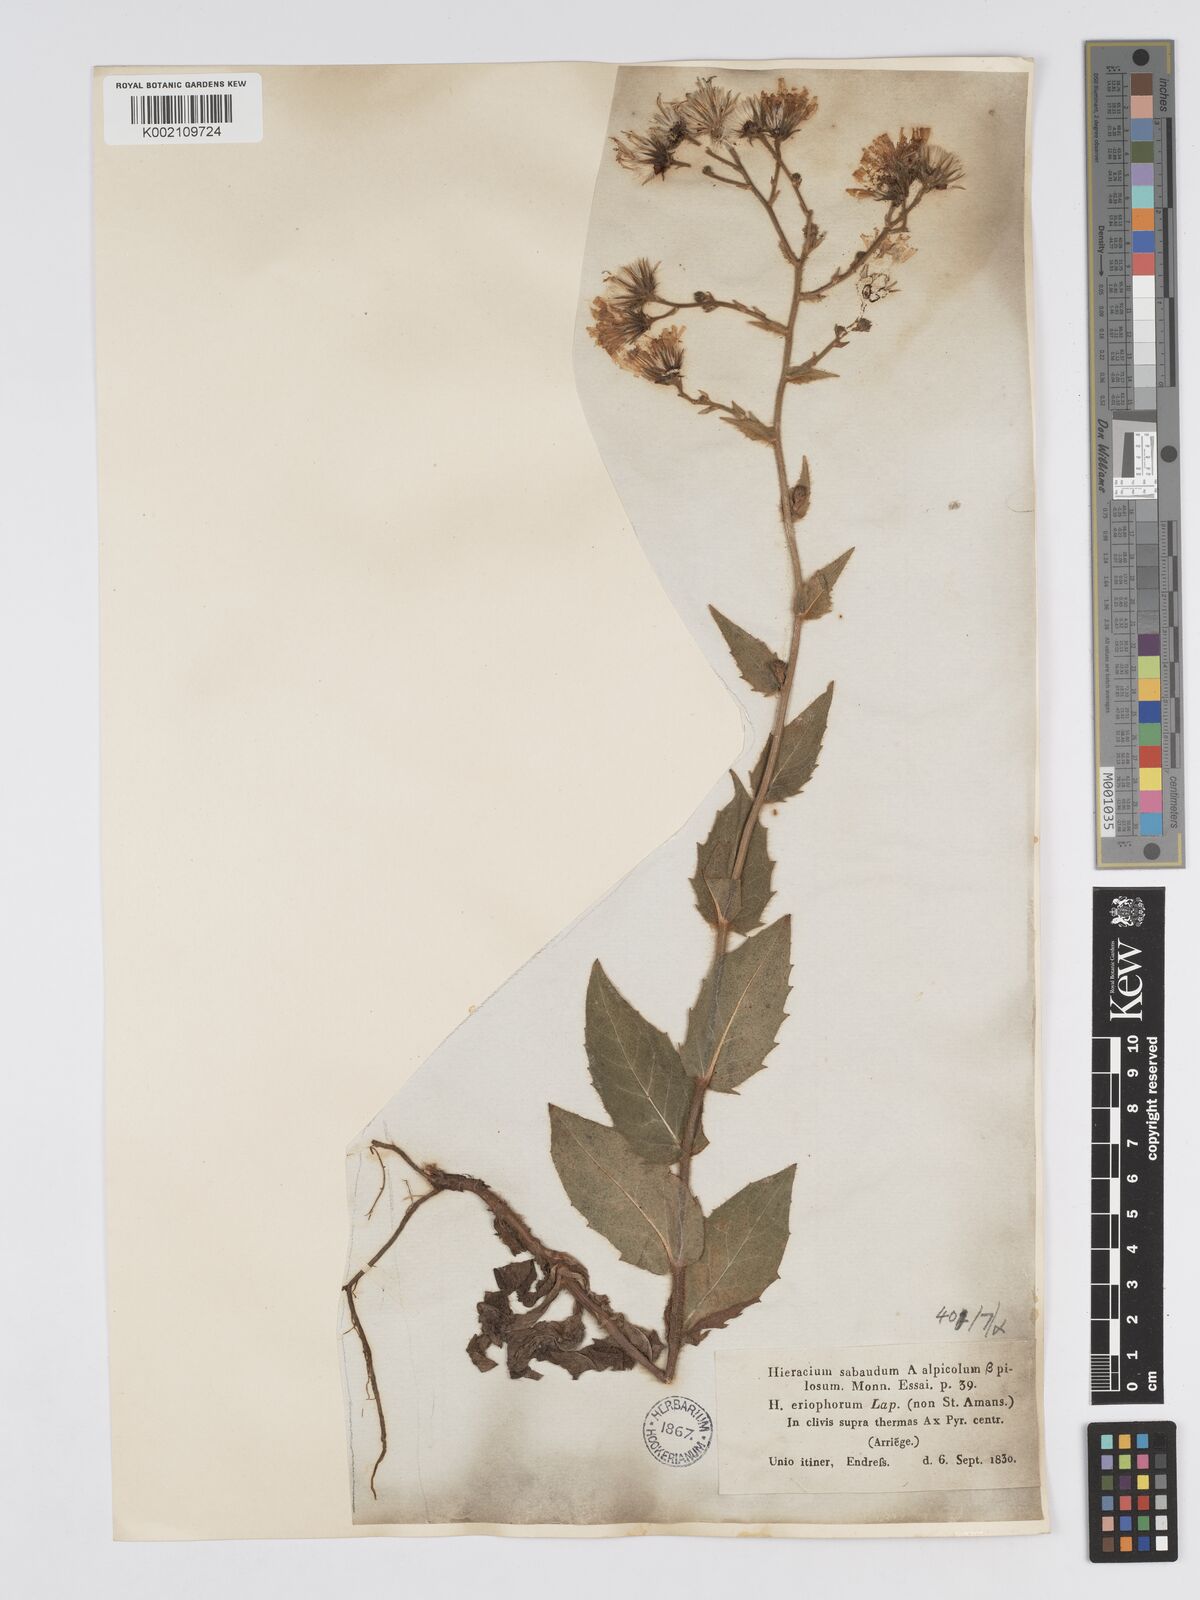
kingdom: Plantae
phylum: Tracheophyta
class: Magnoliopsida
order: Asterales
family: Asteraceae
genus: Hieracium
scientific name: Hieracium
